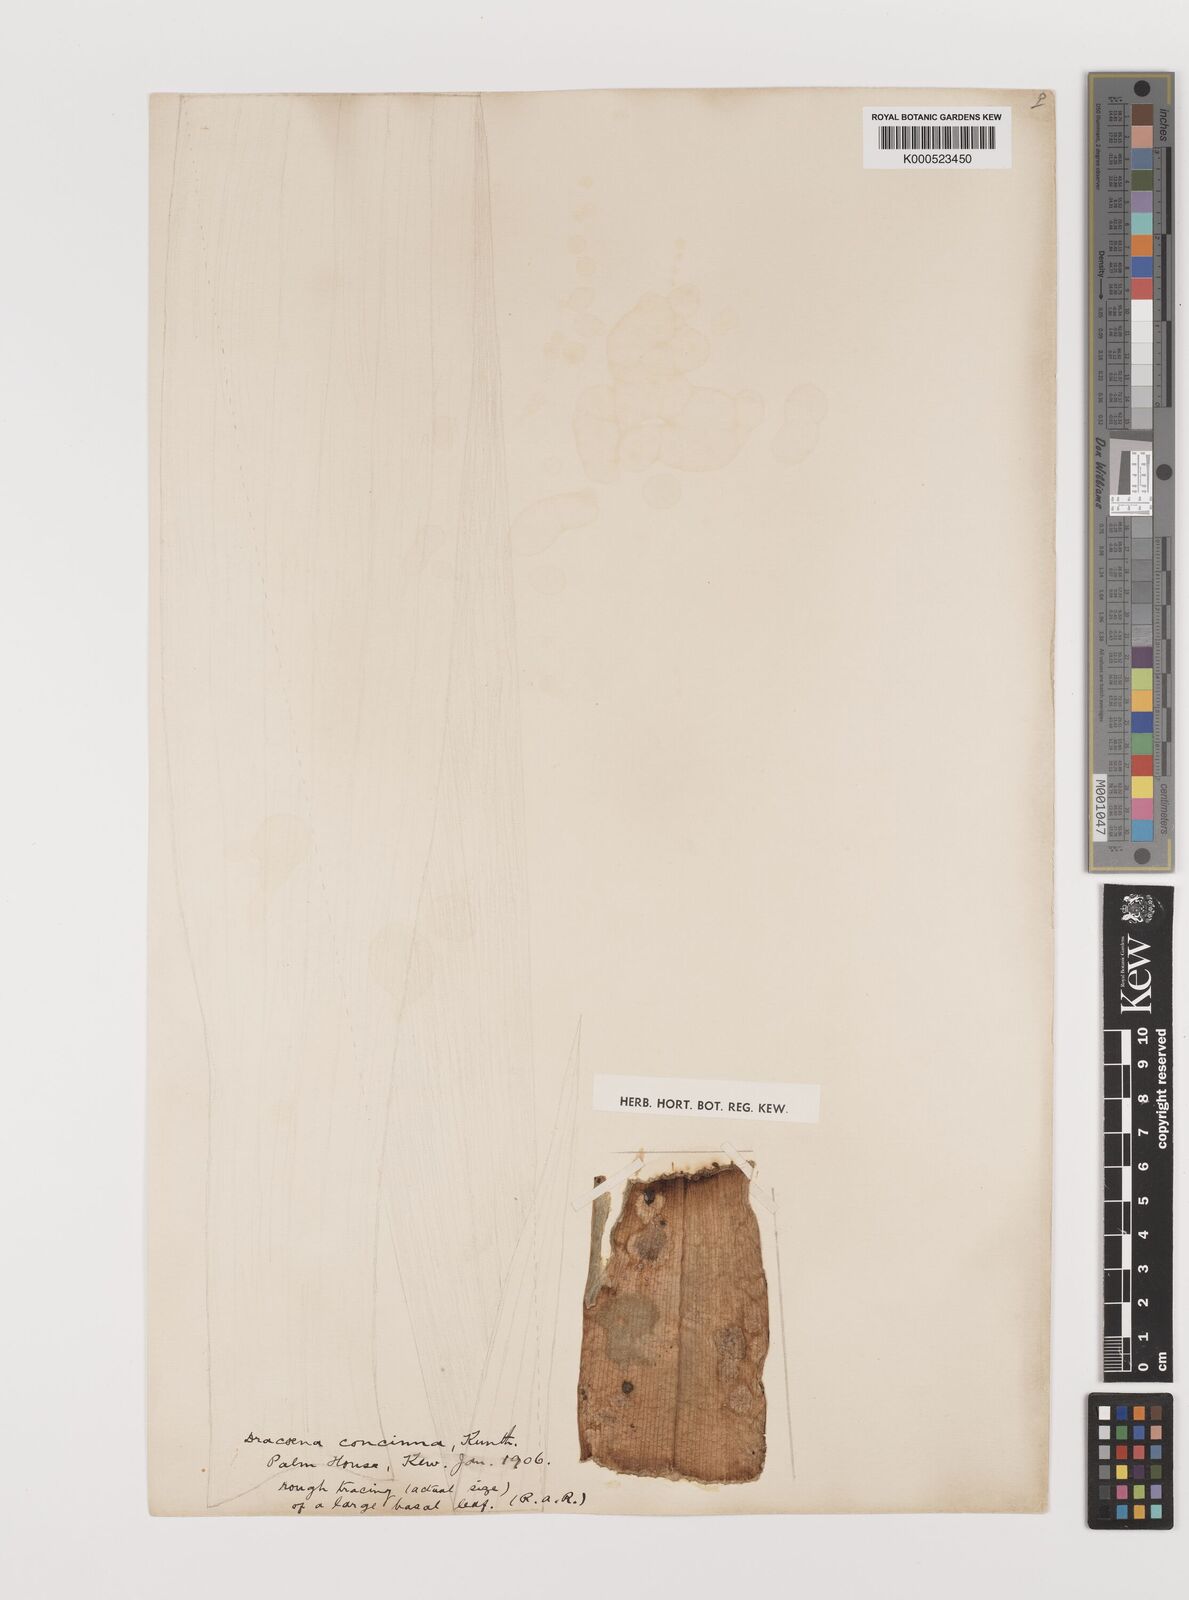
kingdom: Plantae
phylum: Tracheophyta
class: Liliopsida
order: Asparagales
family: Asparagaceae
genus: Dracaena
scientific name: Dracaena concinna
